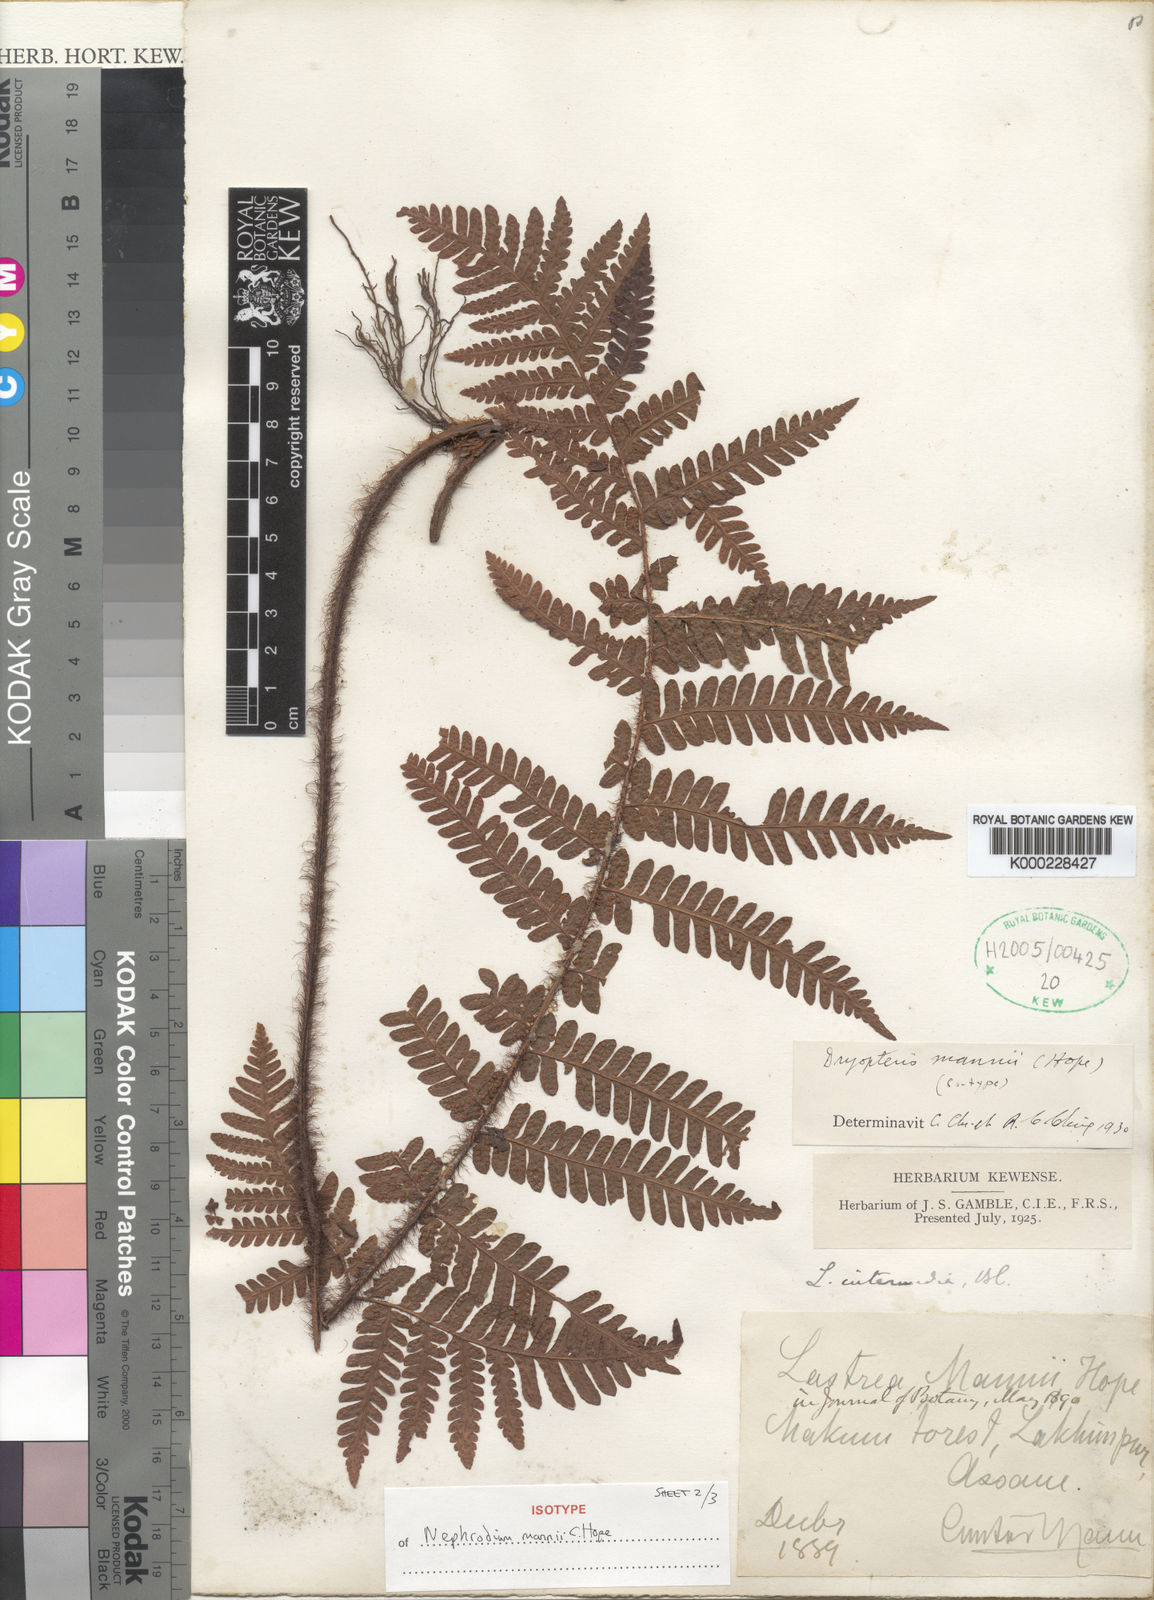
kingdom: Plantae
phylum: Tracheophyta
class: Polypodiopsida
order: Polypodiales
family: Dryopteridaceae
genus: Ctenitis
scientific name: Ctenitis mannii
